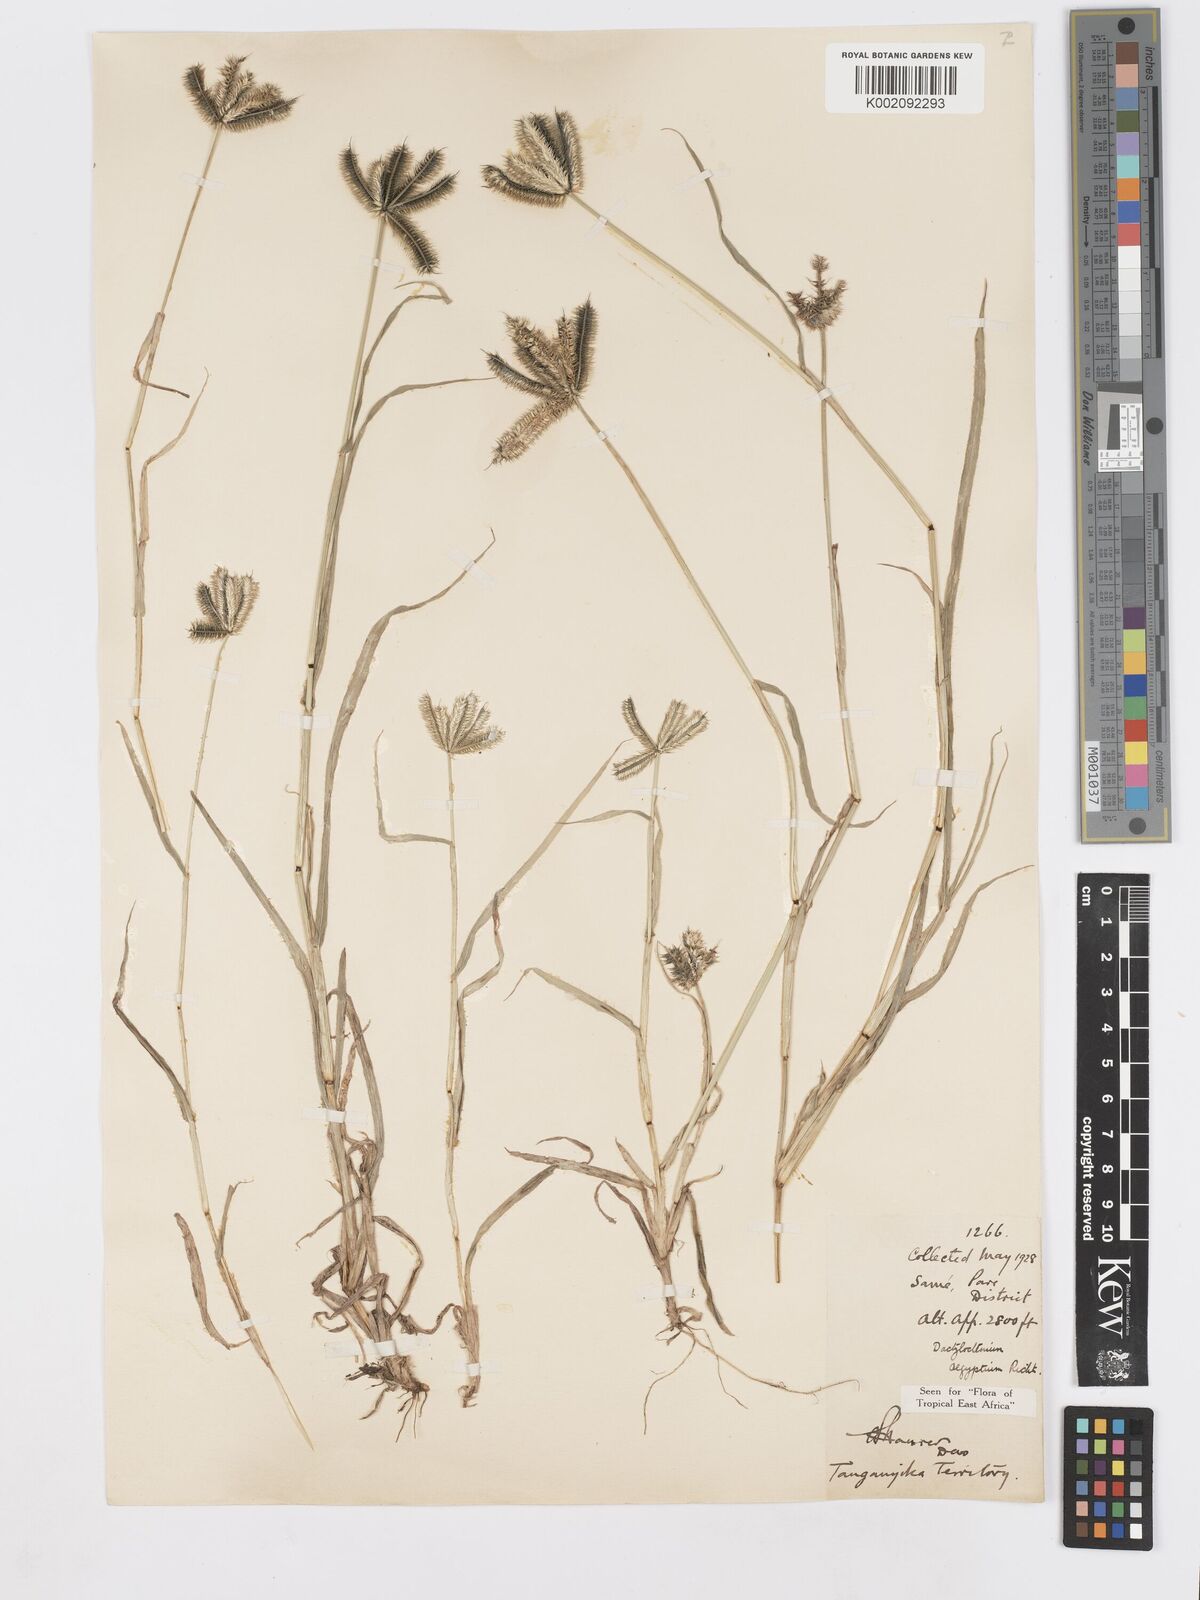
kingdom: Plantae
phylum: Tracheophyta
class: Liliopsida
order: Poales
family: Poaceae
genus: Dactyloctenium
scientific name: Dactyloctenium aegyptium
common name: Egyptian grass
